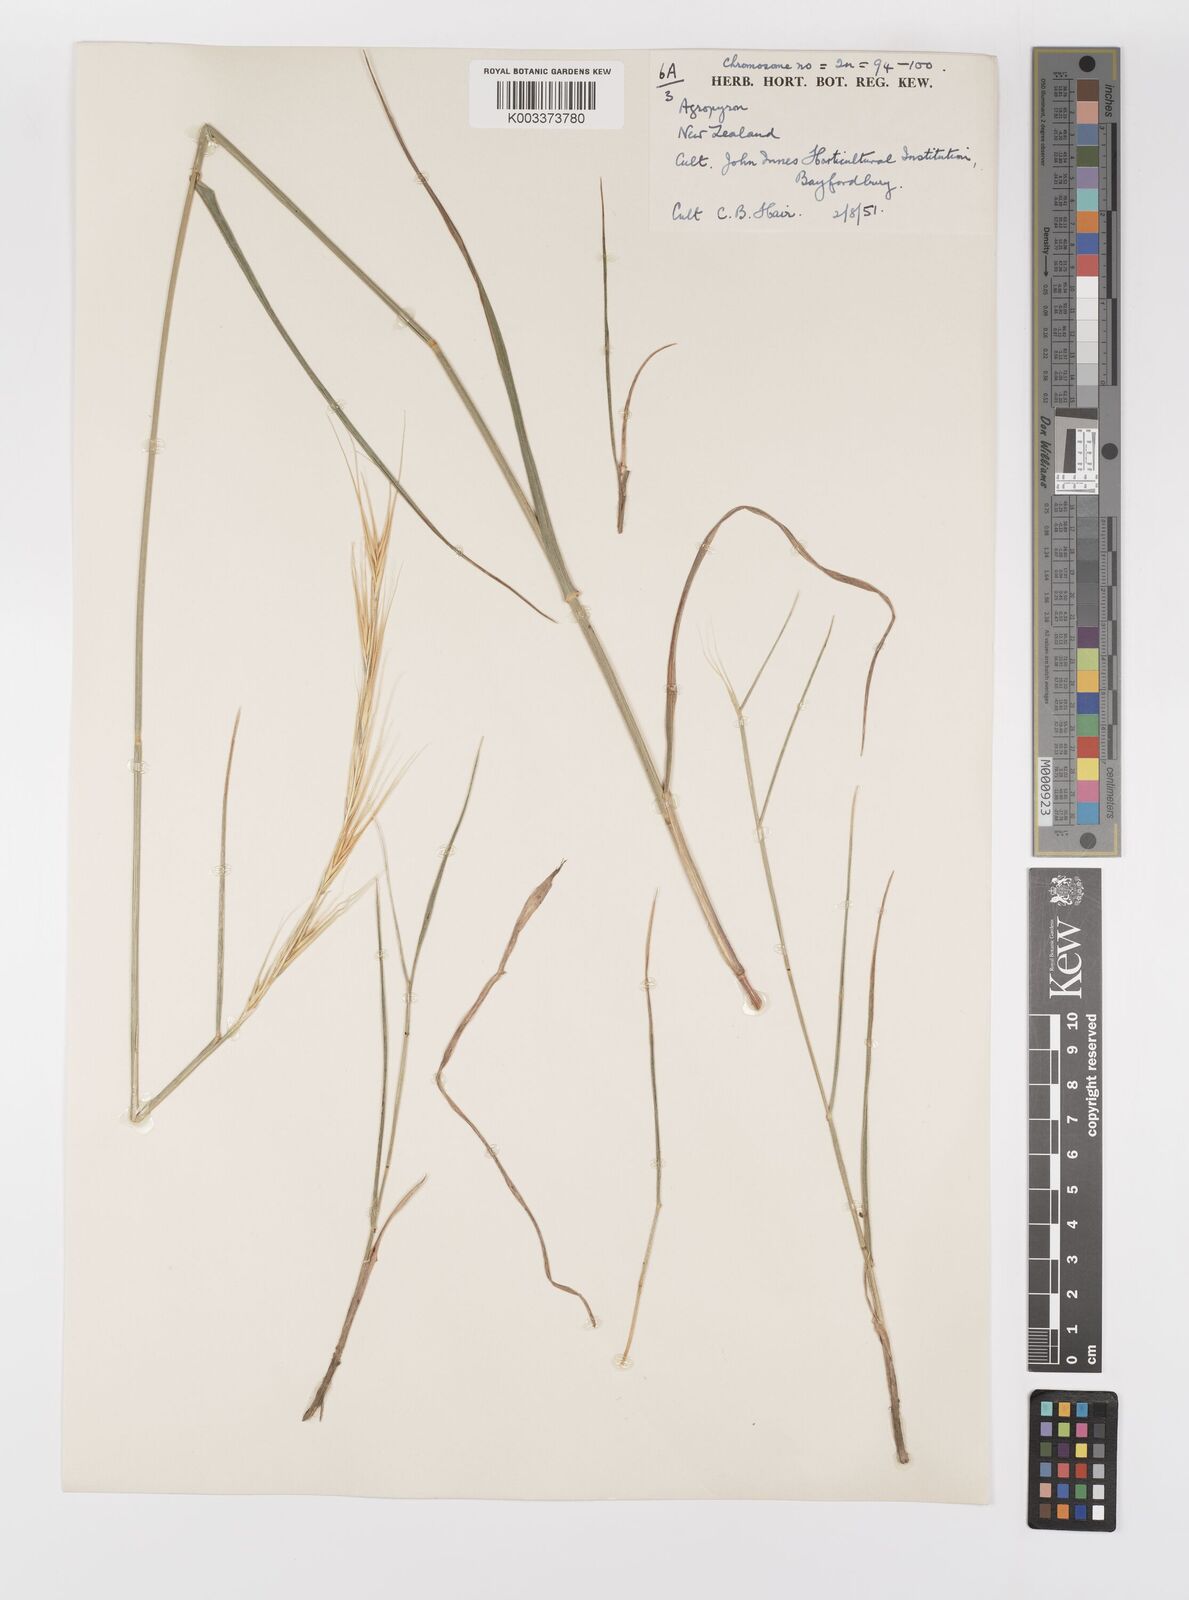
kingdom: Plantae
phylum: Tracheophyta
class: Liliopsida
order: Poales
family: Poaceae
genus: Elymus
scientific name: Elymus
